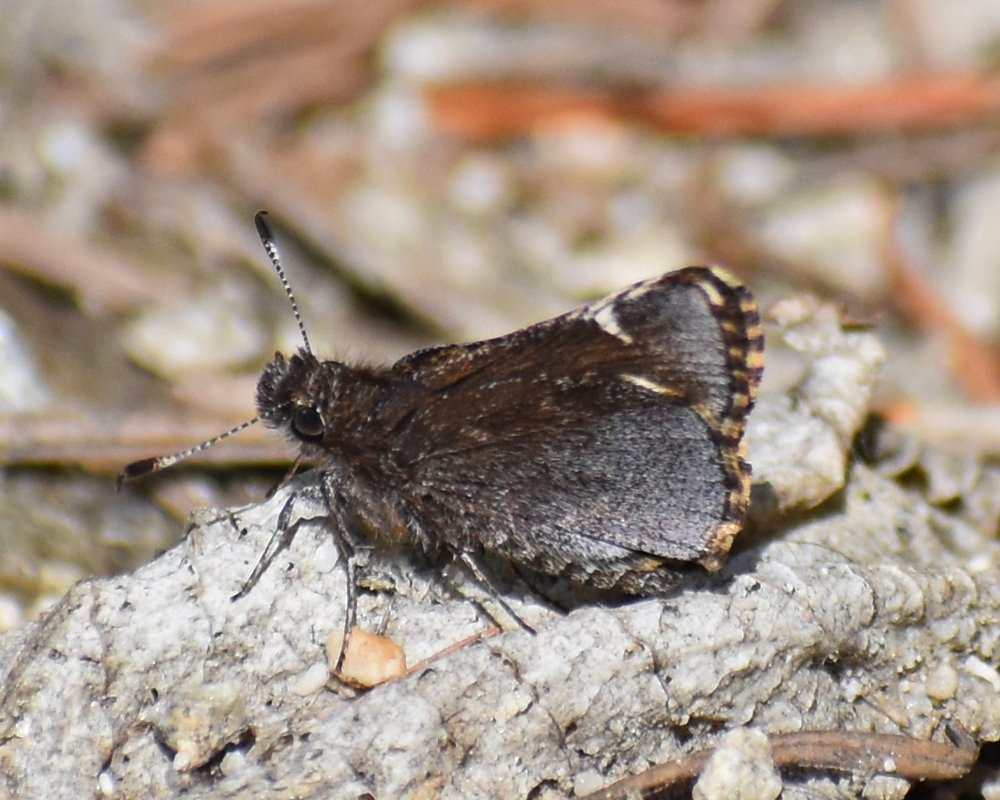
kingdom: Animalia
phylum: Arthropoda
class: Insecta
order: Lepidoptera
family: Hesperiidae
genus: Mastor
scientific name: Mastor vialis
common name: Common Roadside-Skipper
